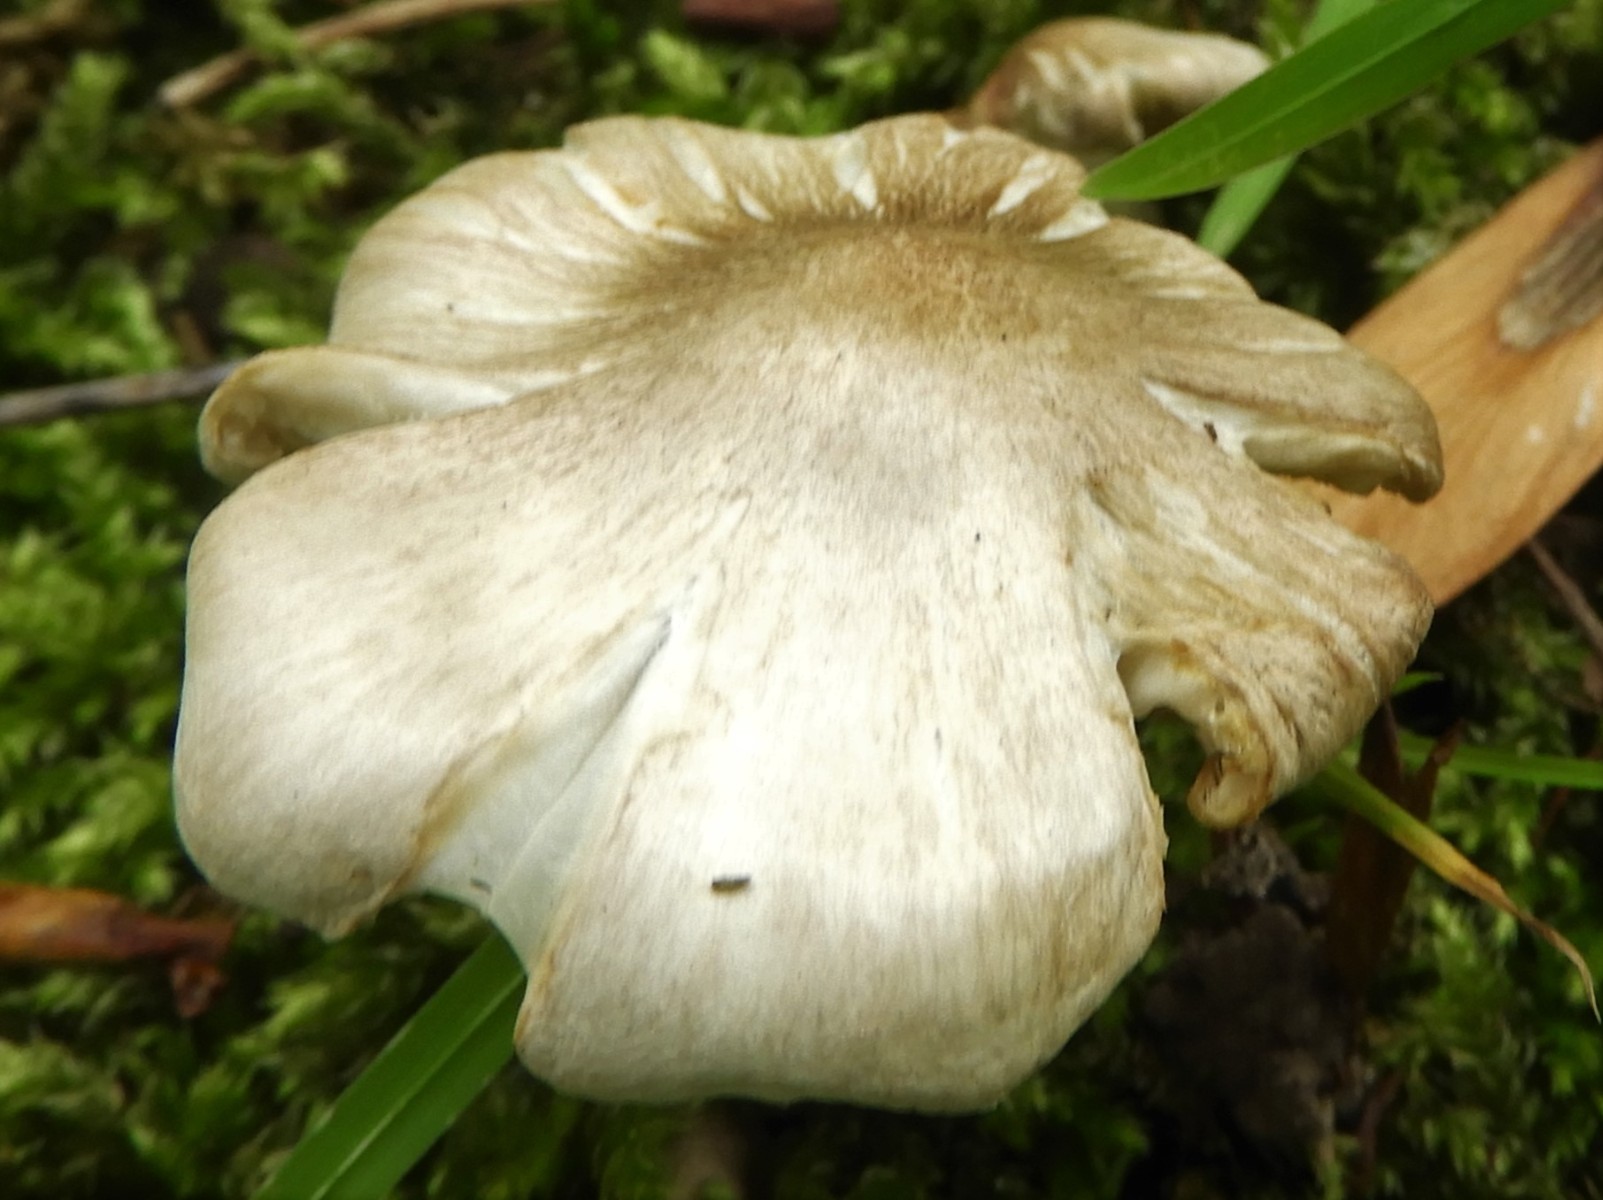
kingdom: Fungi
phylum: Basidiomycota
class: Agaricomycetes
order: Agaricales
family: Tricholomataceae
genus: Tricholoma
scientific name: Tricholoma argyraceum
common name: spids ridderhat
